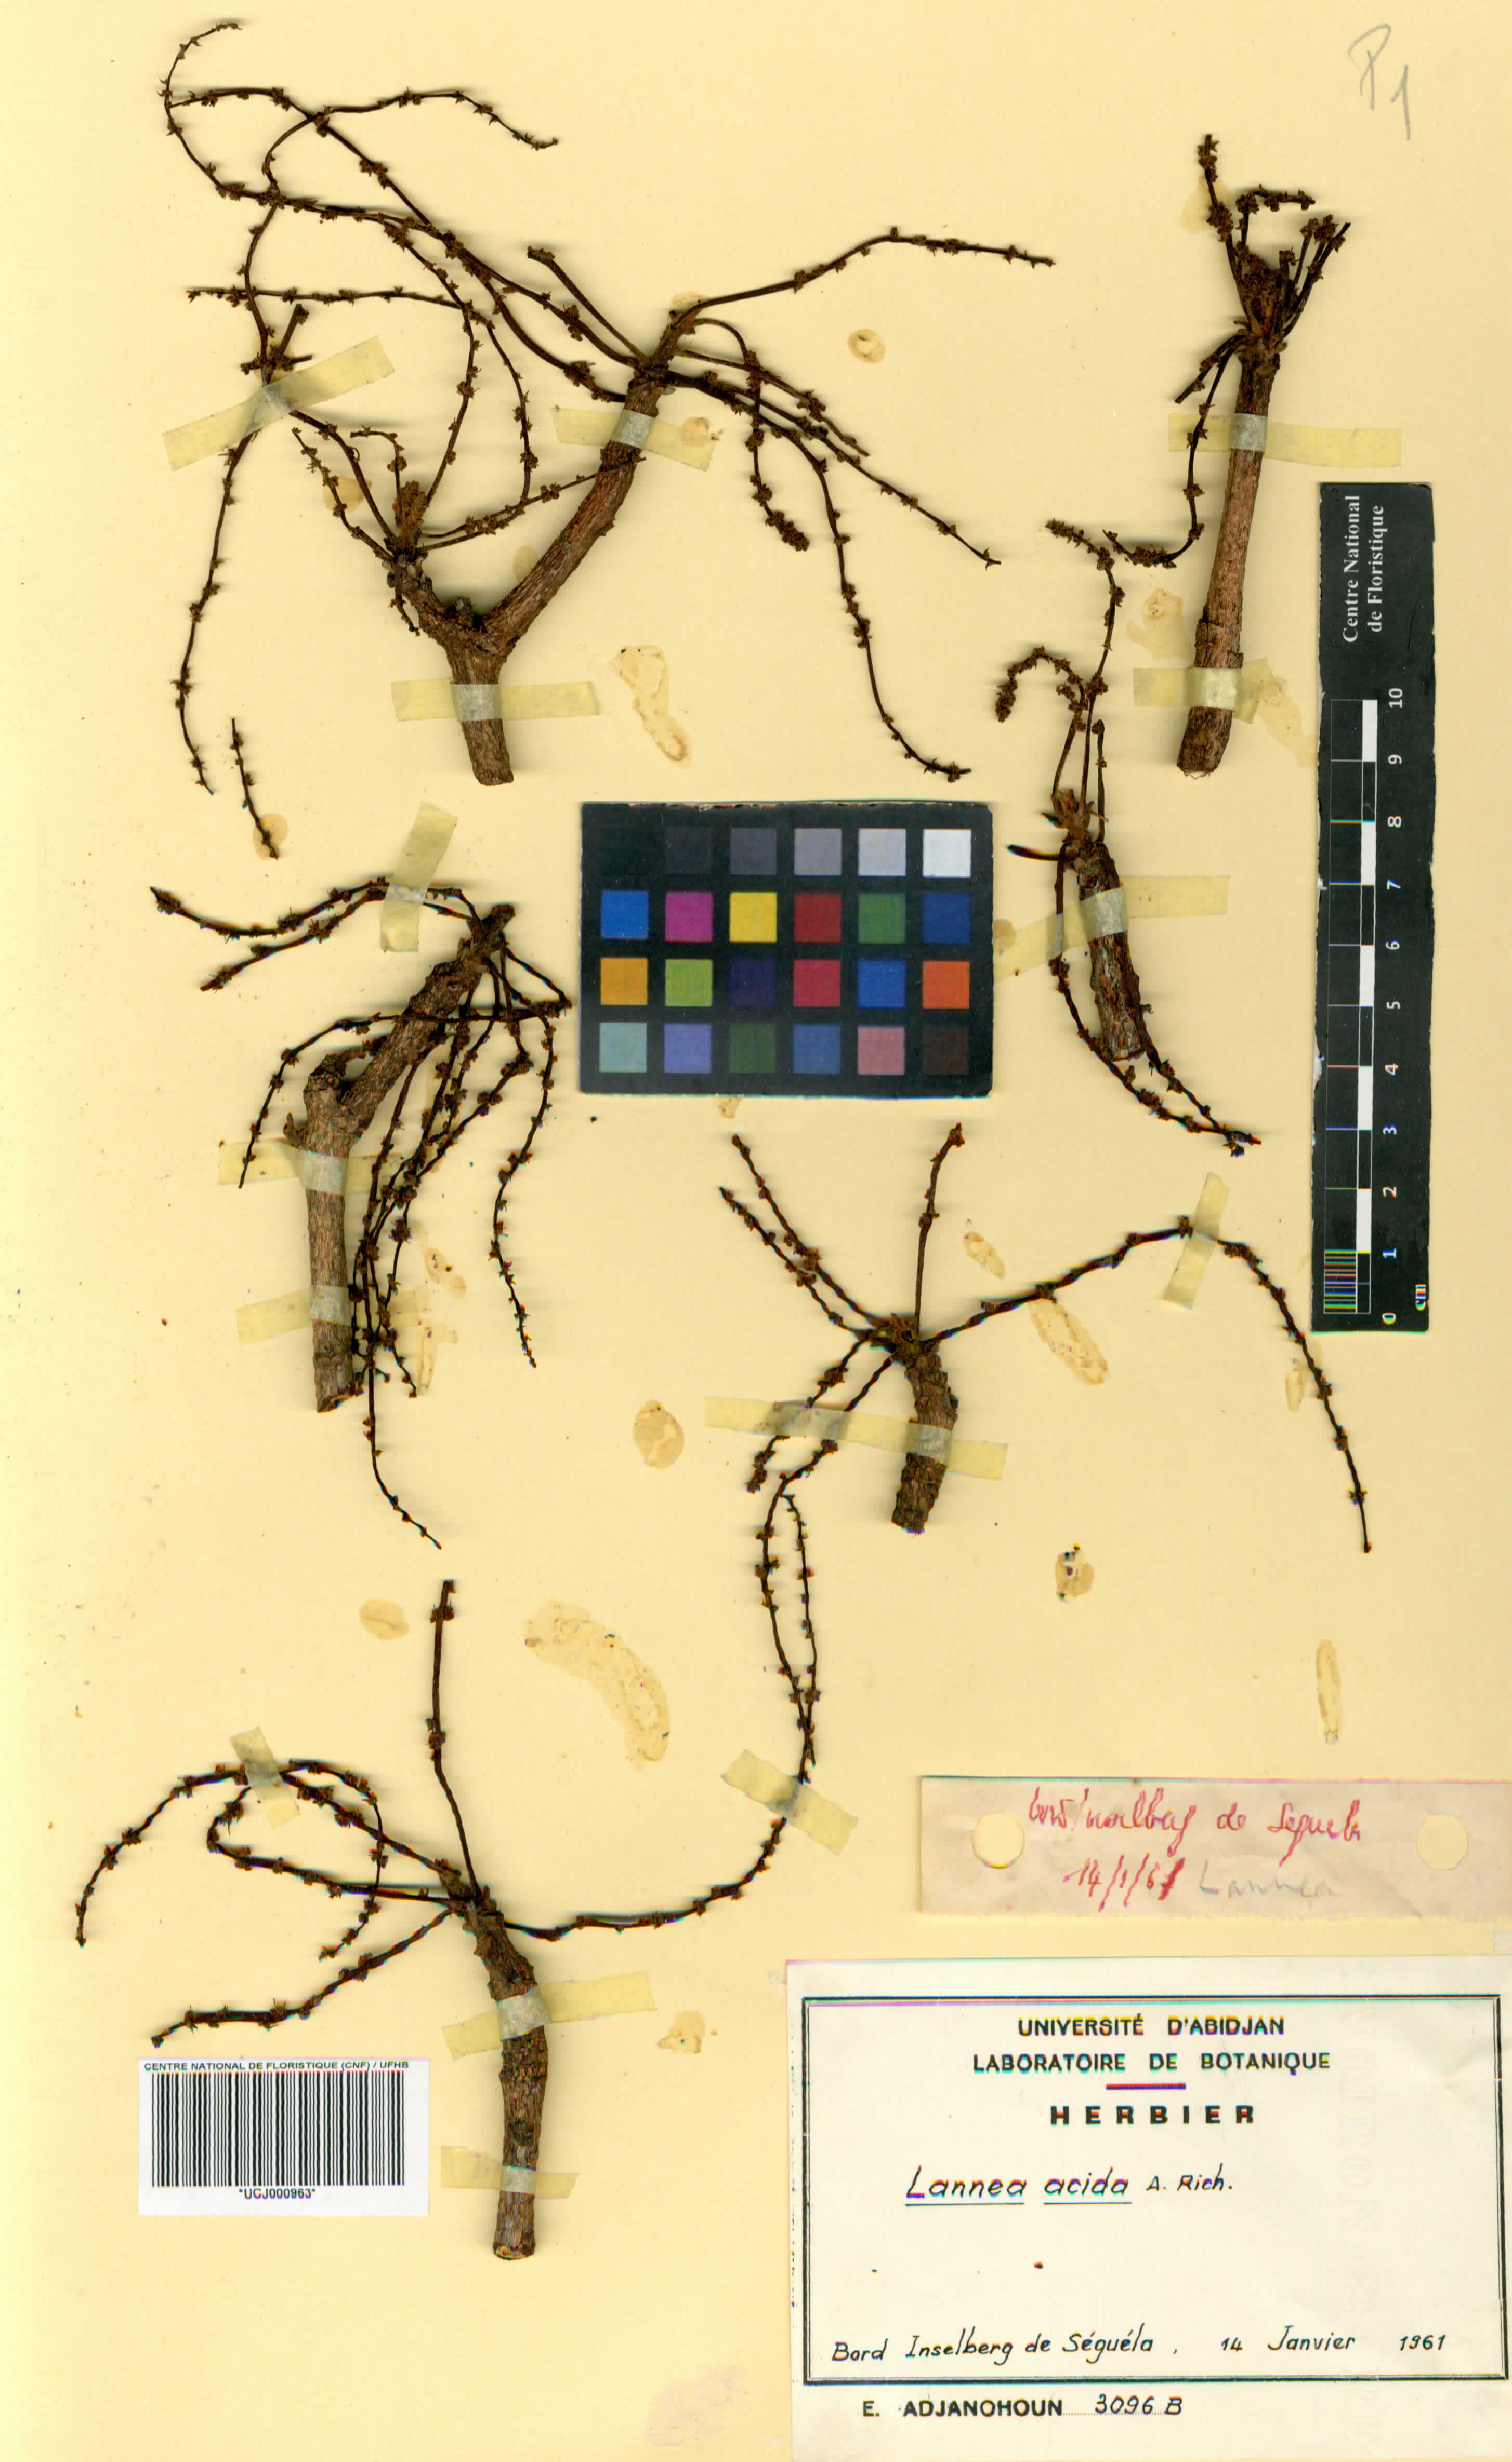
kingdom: Plantae
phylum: Tracheophyta
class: Magnoliopsida
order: Sapindales
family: Anacardiaceae
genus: Lannea
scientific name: Lannea acida
